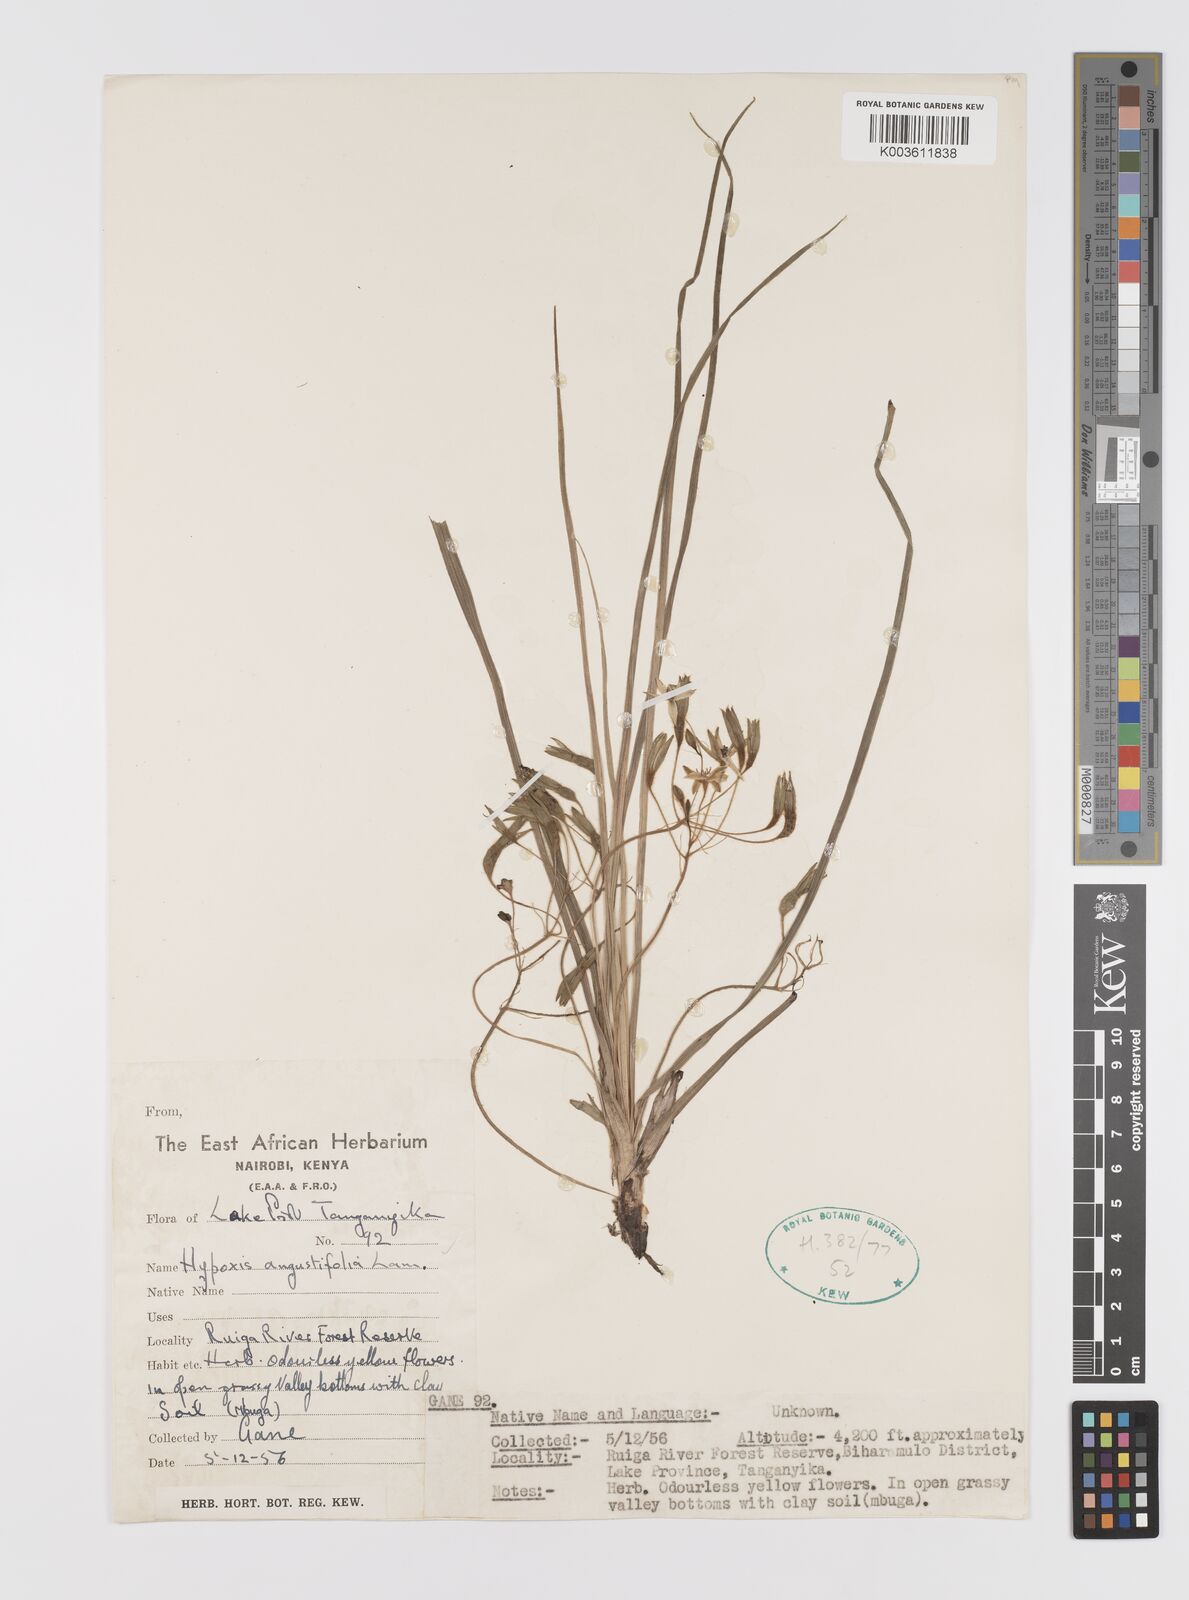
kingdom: Plantae
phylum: Tracheophyta
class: Liliopsida
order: Asparagales
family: Hypoxidaceae
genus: Hypoxis
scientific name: Hypoxis angustifolia
